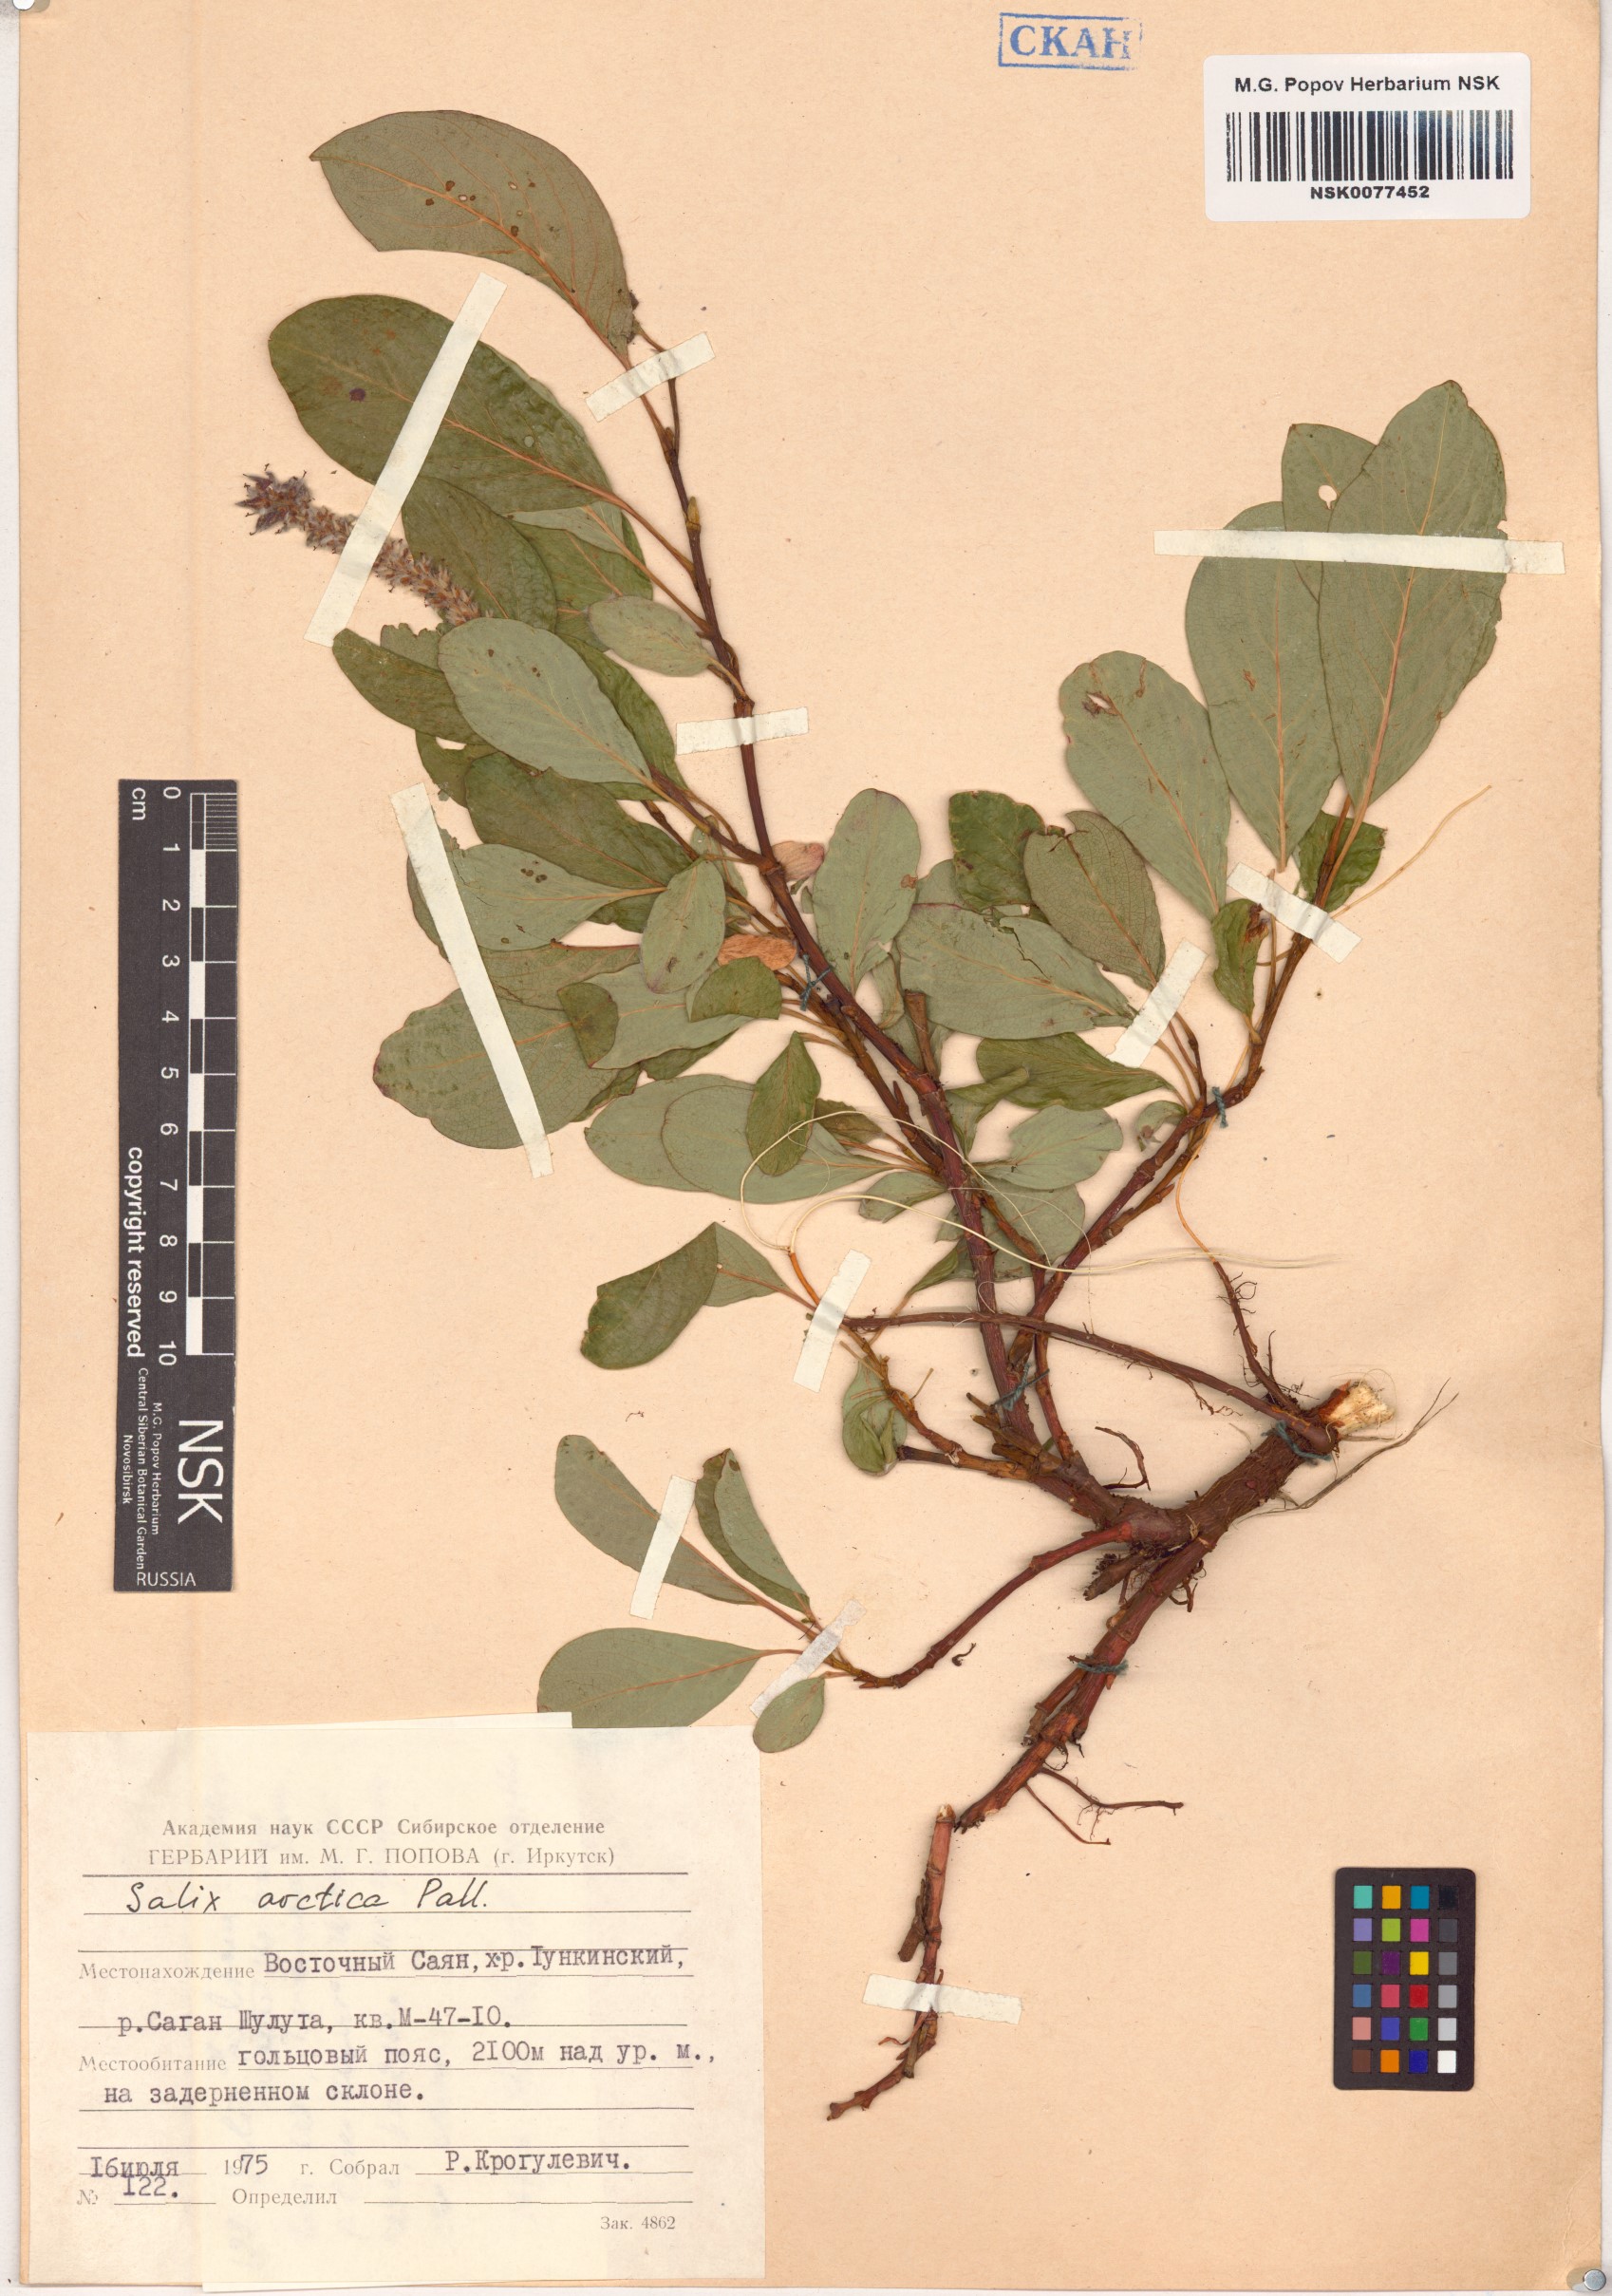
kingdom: Plantae
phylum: Tracheophyta
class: Magnoliopsida
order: Malpighiales
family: Salicaceae
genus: Salix
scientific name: Salix arctica
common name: Arctic willow
